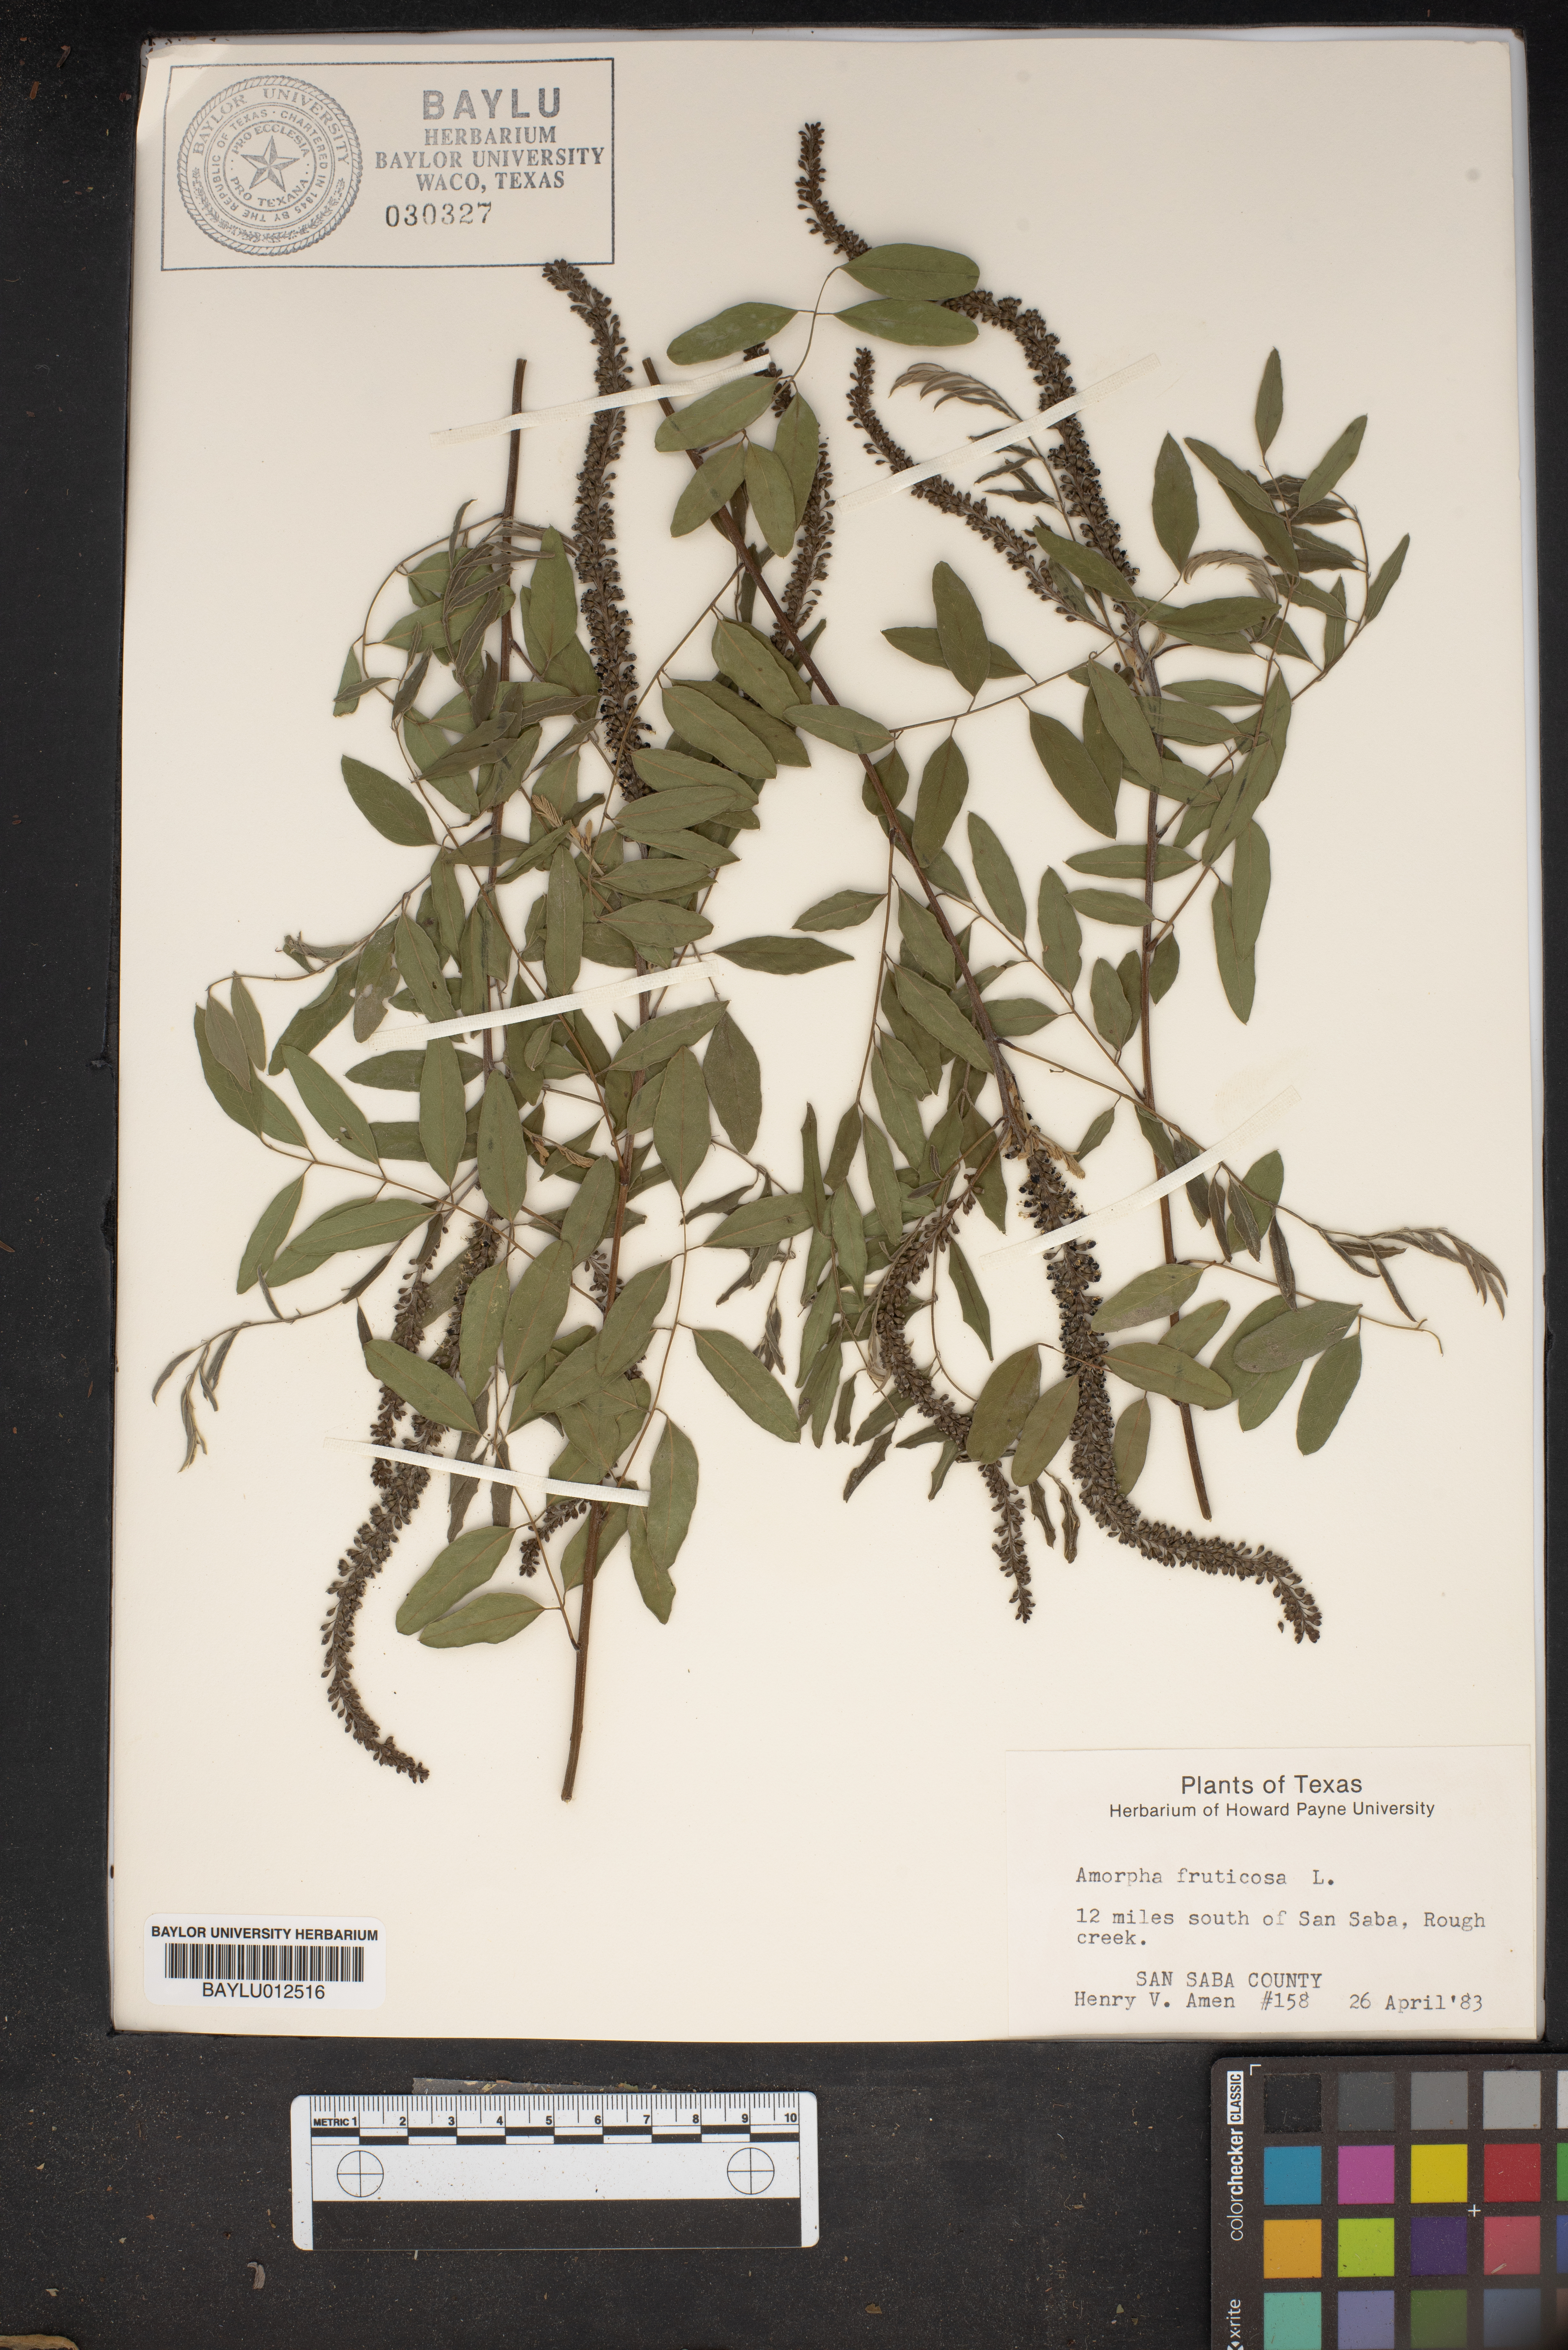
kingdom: Plantae
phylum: Tracheophyta
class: Magnoliopsida
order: Fabales
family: Fabaceae
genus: Amorpha
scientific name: Amorpha fruticosa
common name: False indigo
